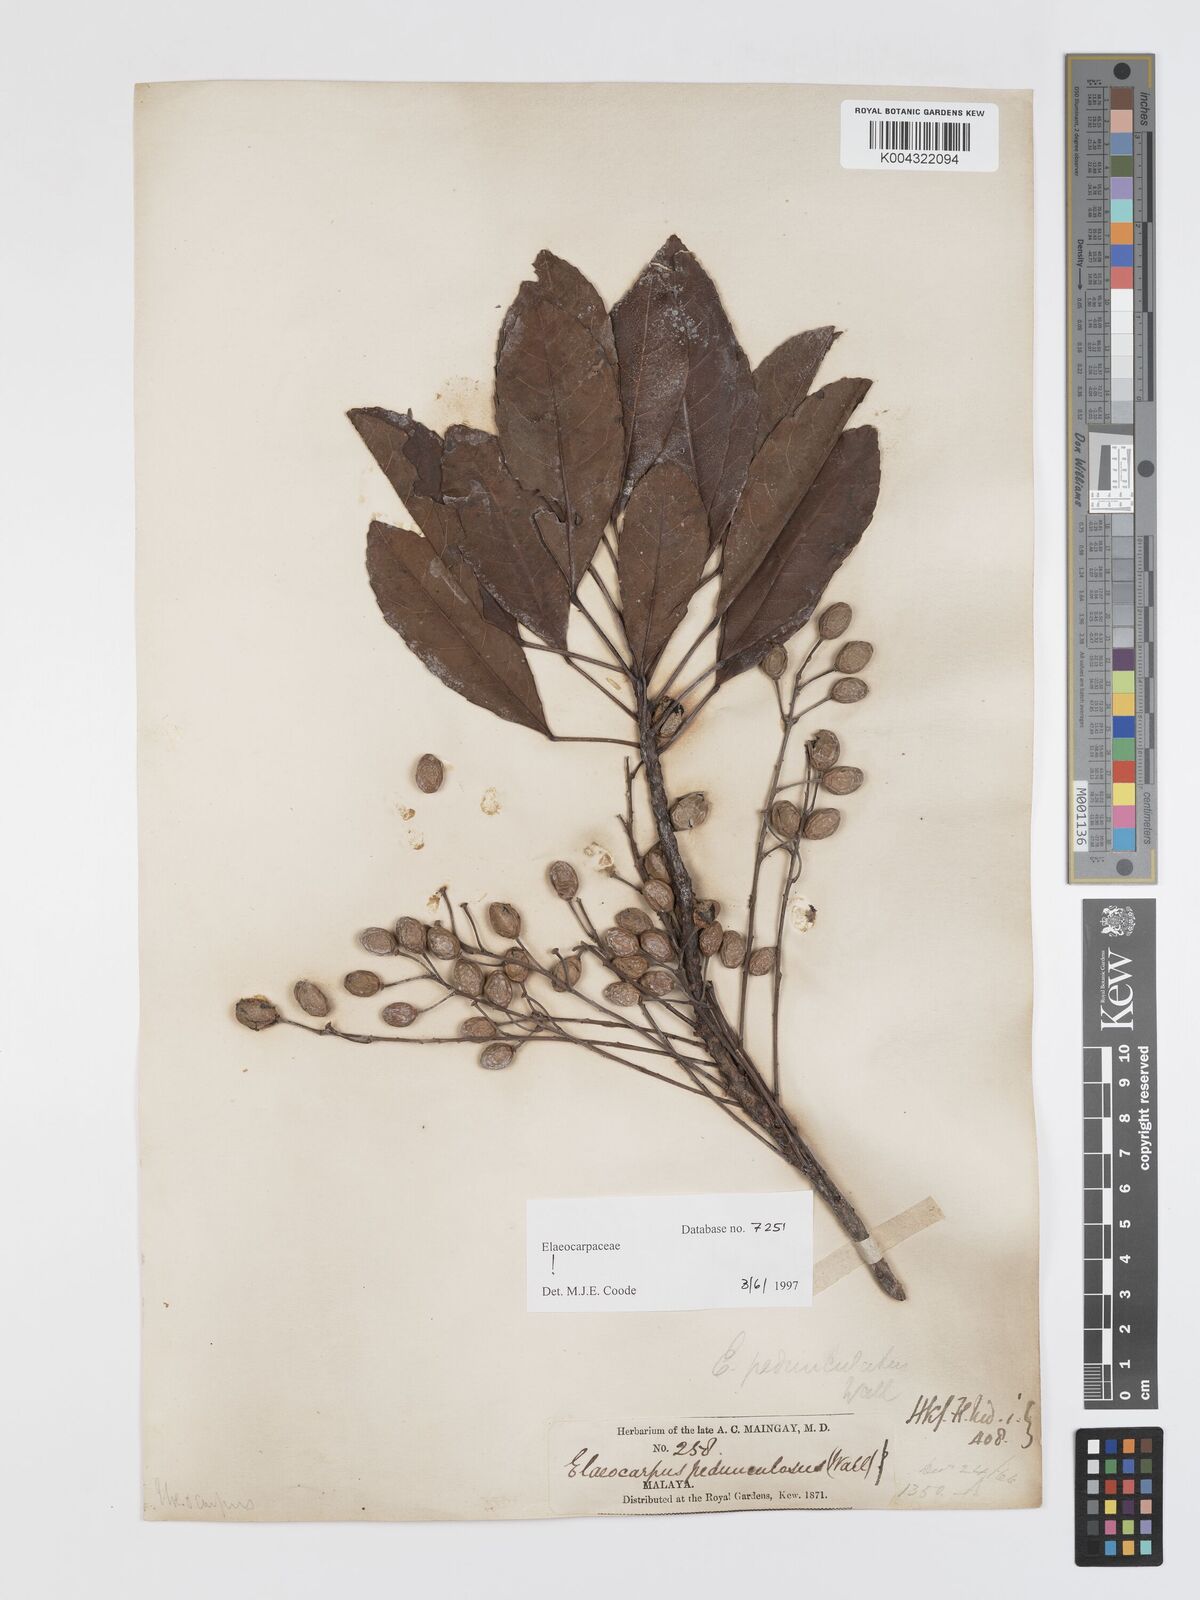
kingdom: Plantae
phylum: Tracheophyta
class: Magnoliopsida
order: Oxalidales
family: Elaeocarpaceae
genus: Elaeocarpus
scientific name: Elaeocarpus pedunculatus
